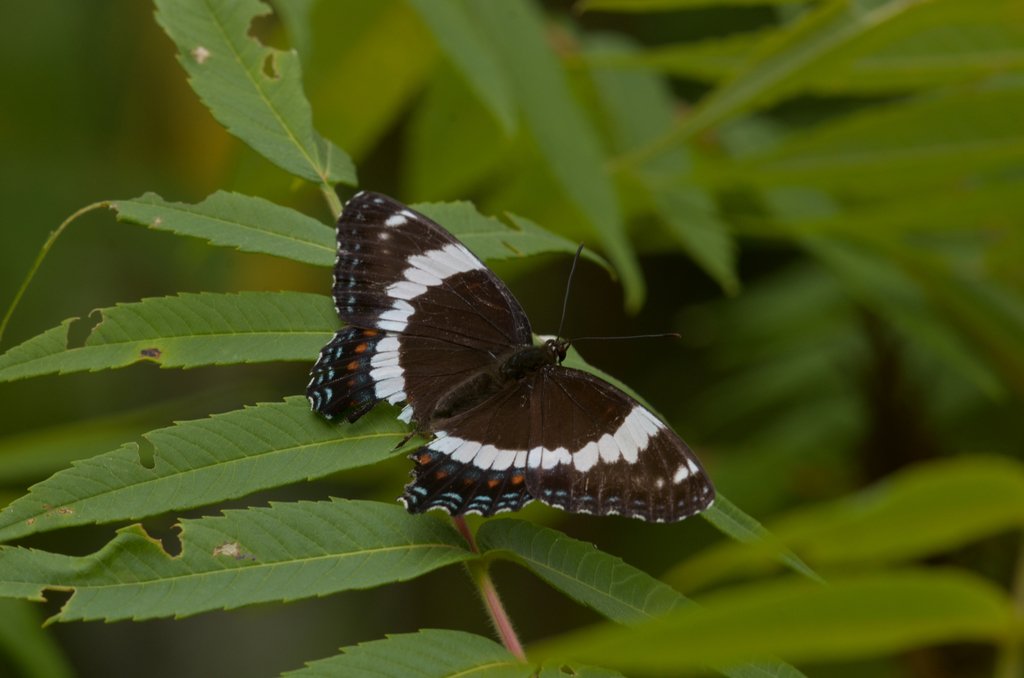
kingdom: Animalia
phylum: Arthropoda
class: Insecta
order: Lepidoptera
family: Nymphalidae
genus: Limenitis
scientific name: Limenitis arthemis
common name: Red-spotted Admiral
